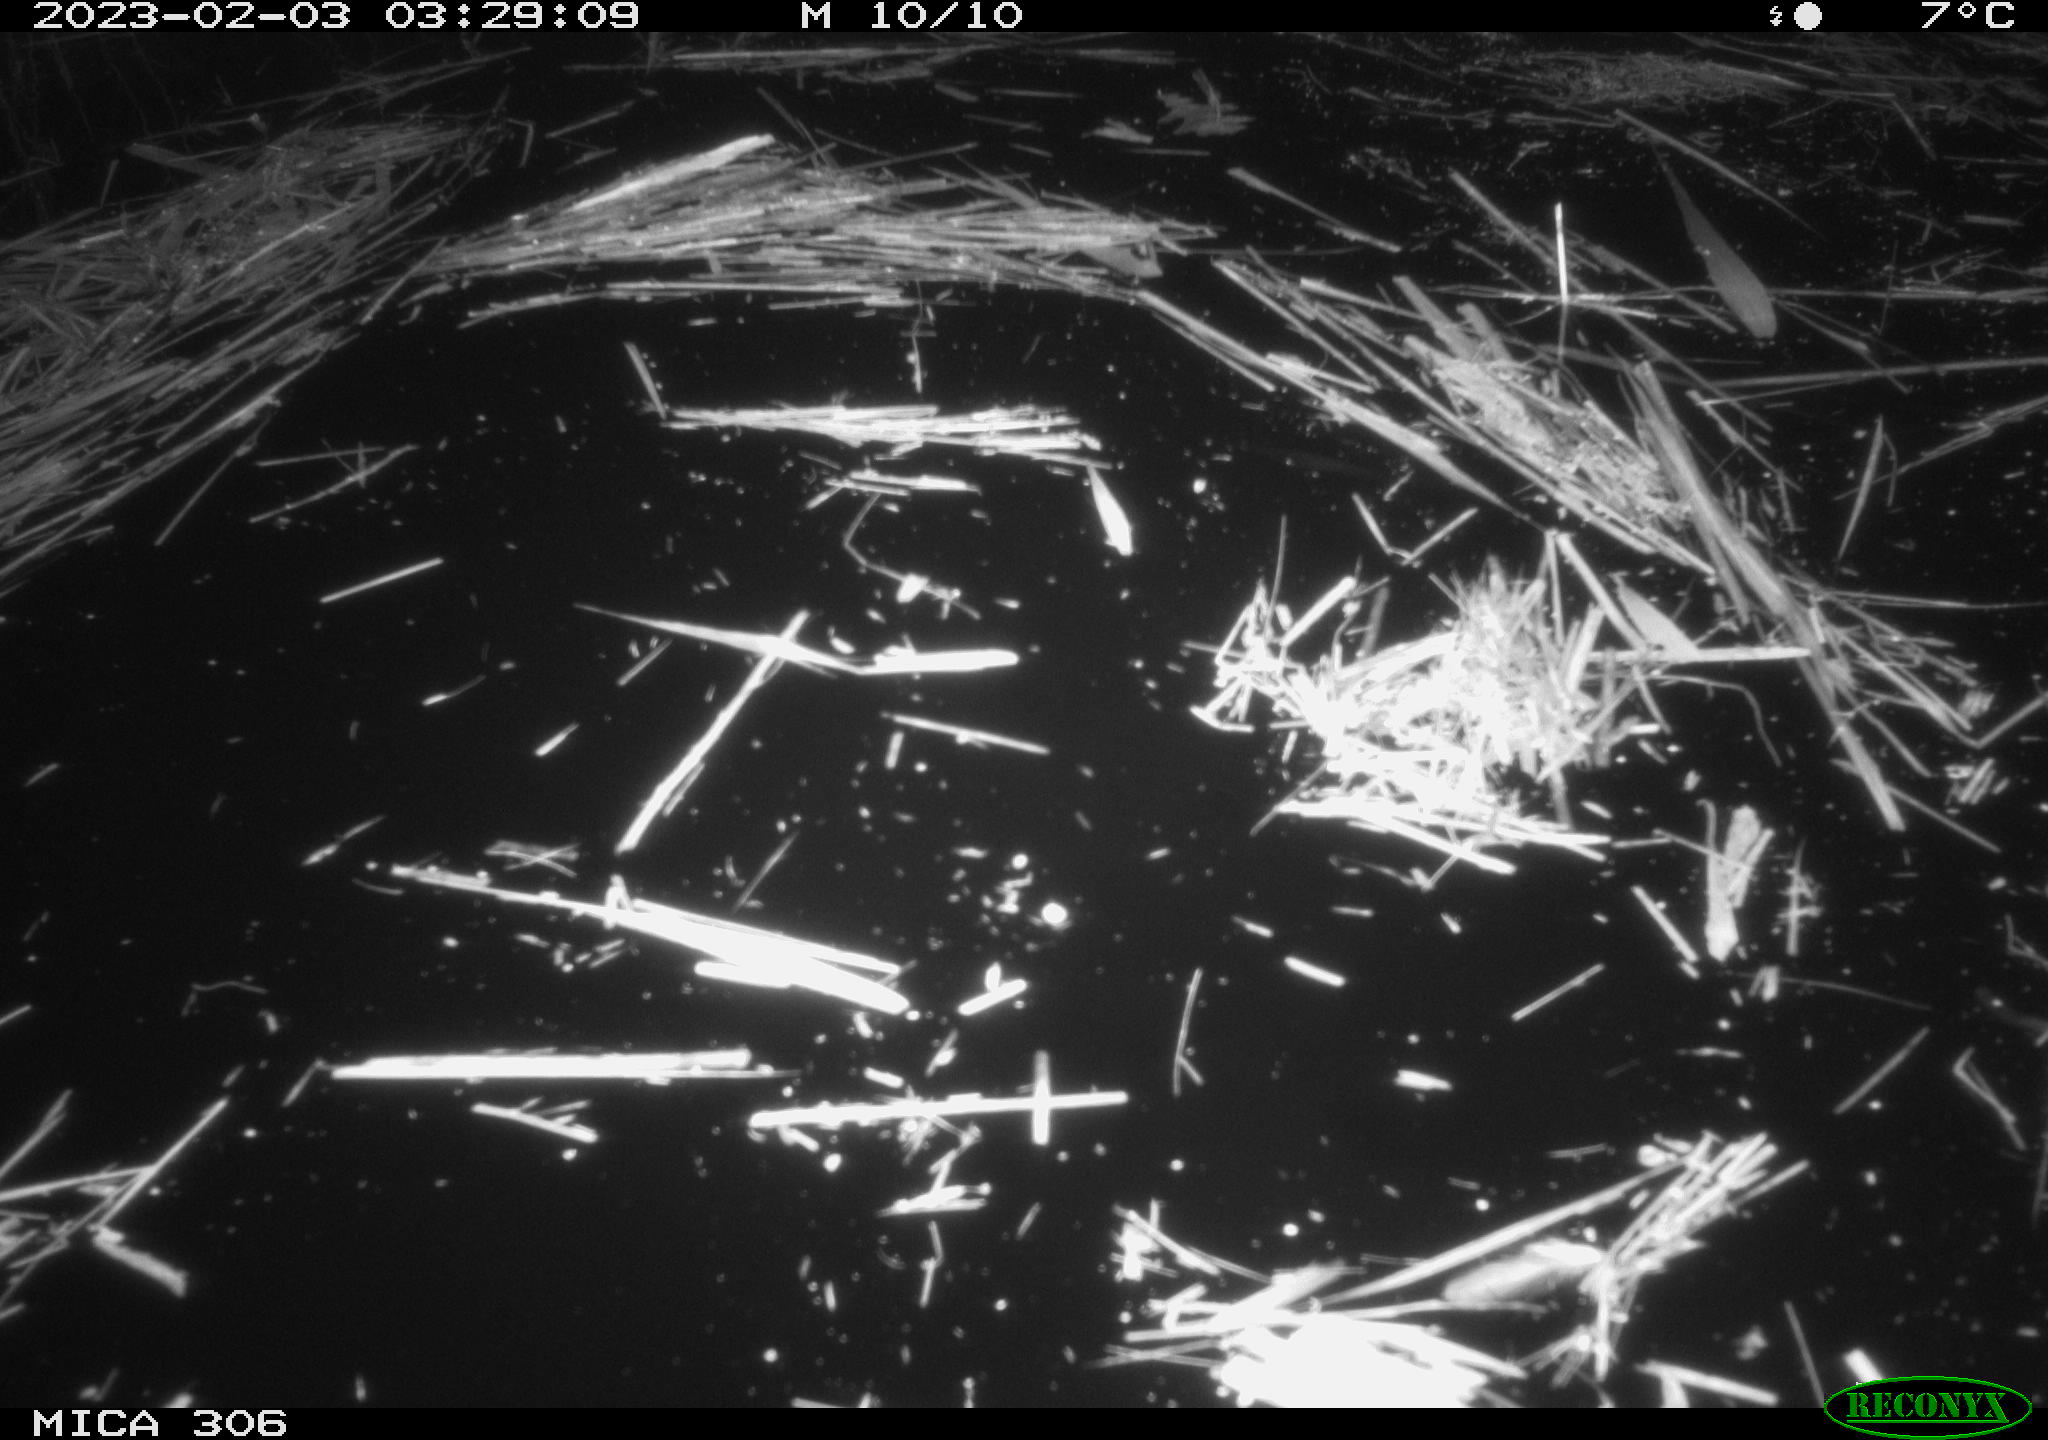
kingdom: Animalia
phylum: Chordata
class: Mammalia
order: Rodentia
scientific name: Rodentia
